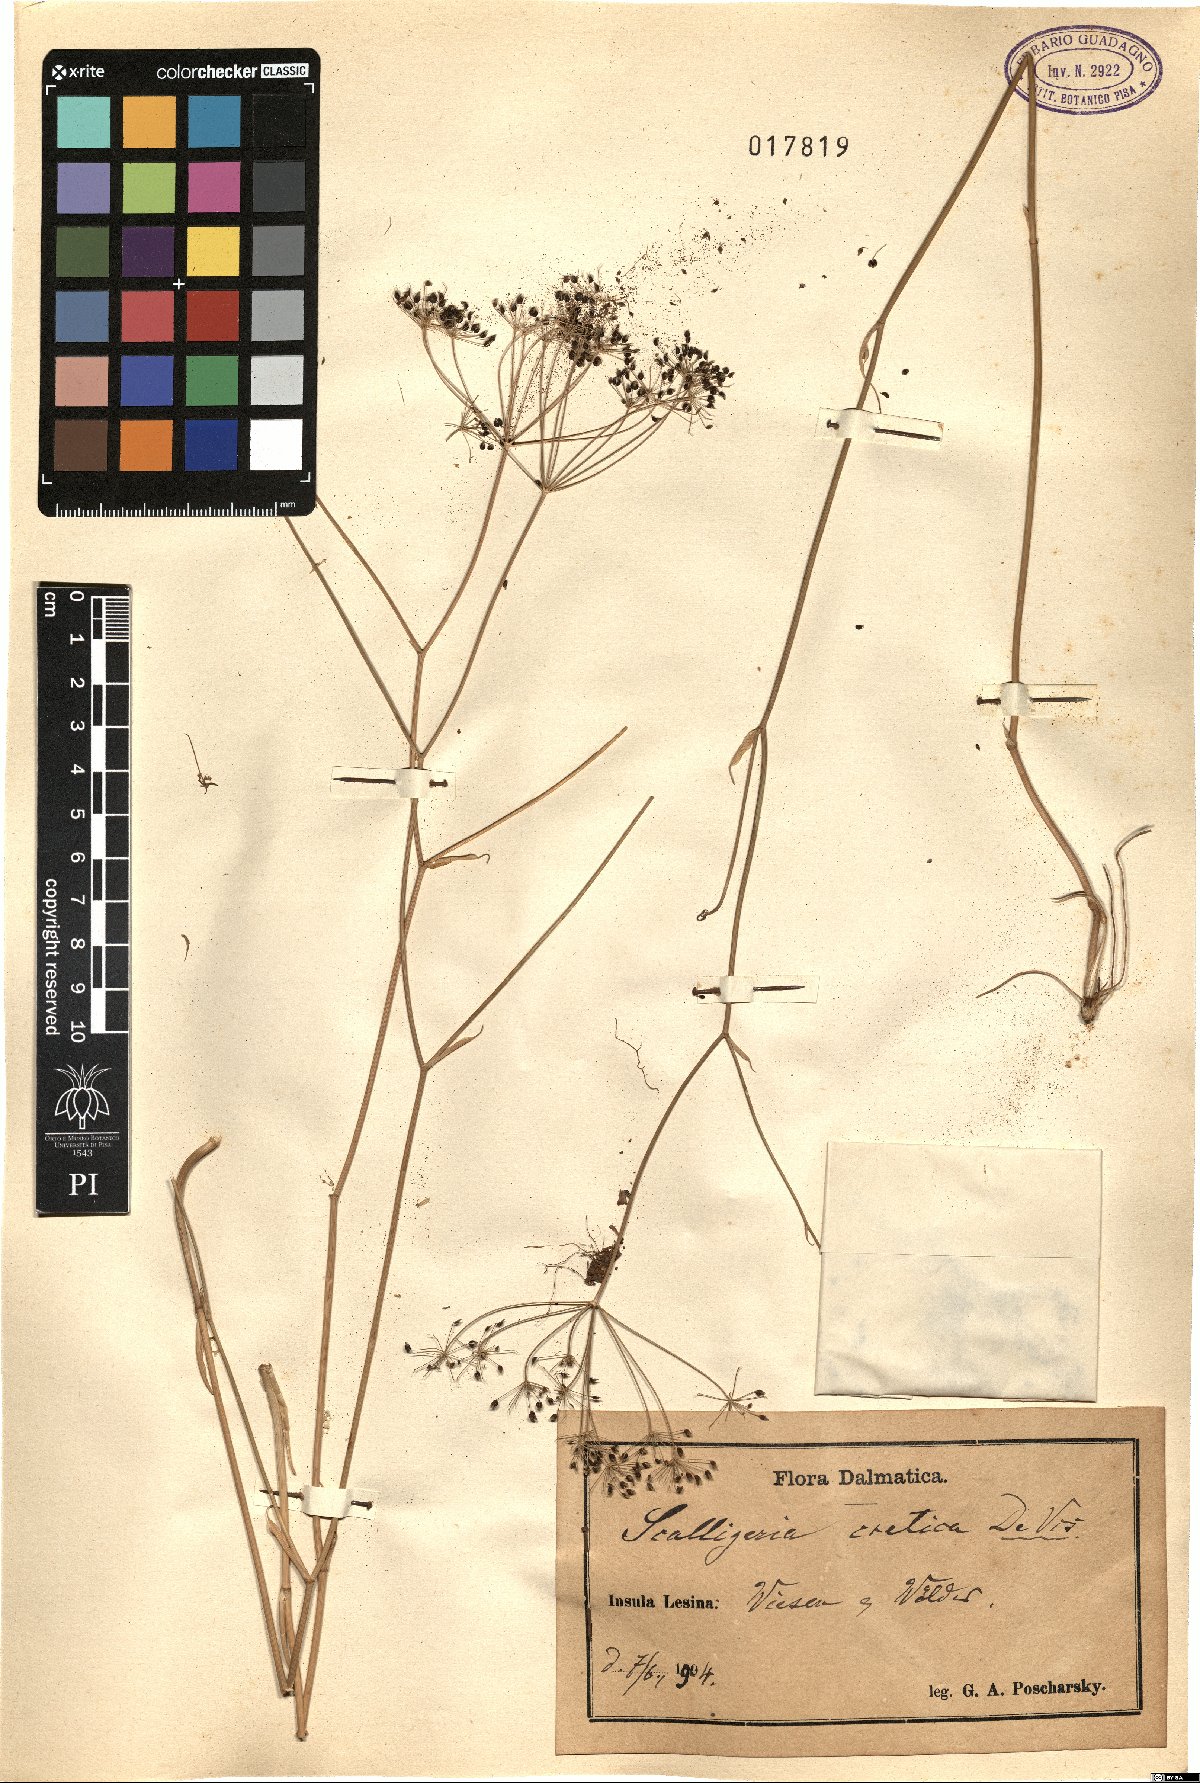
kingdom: Plantae
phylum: Tracheophyta
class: Magnoliopsida
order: Apiales
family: Apiaceae
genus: Scaligeria
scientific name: Scaligeria napiformis
